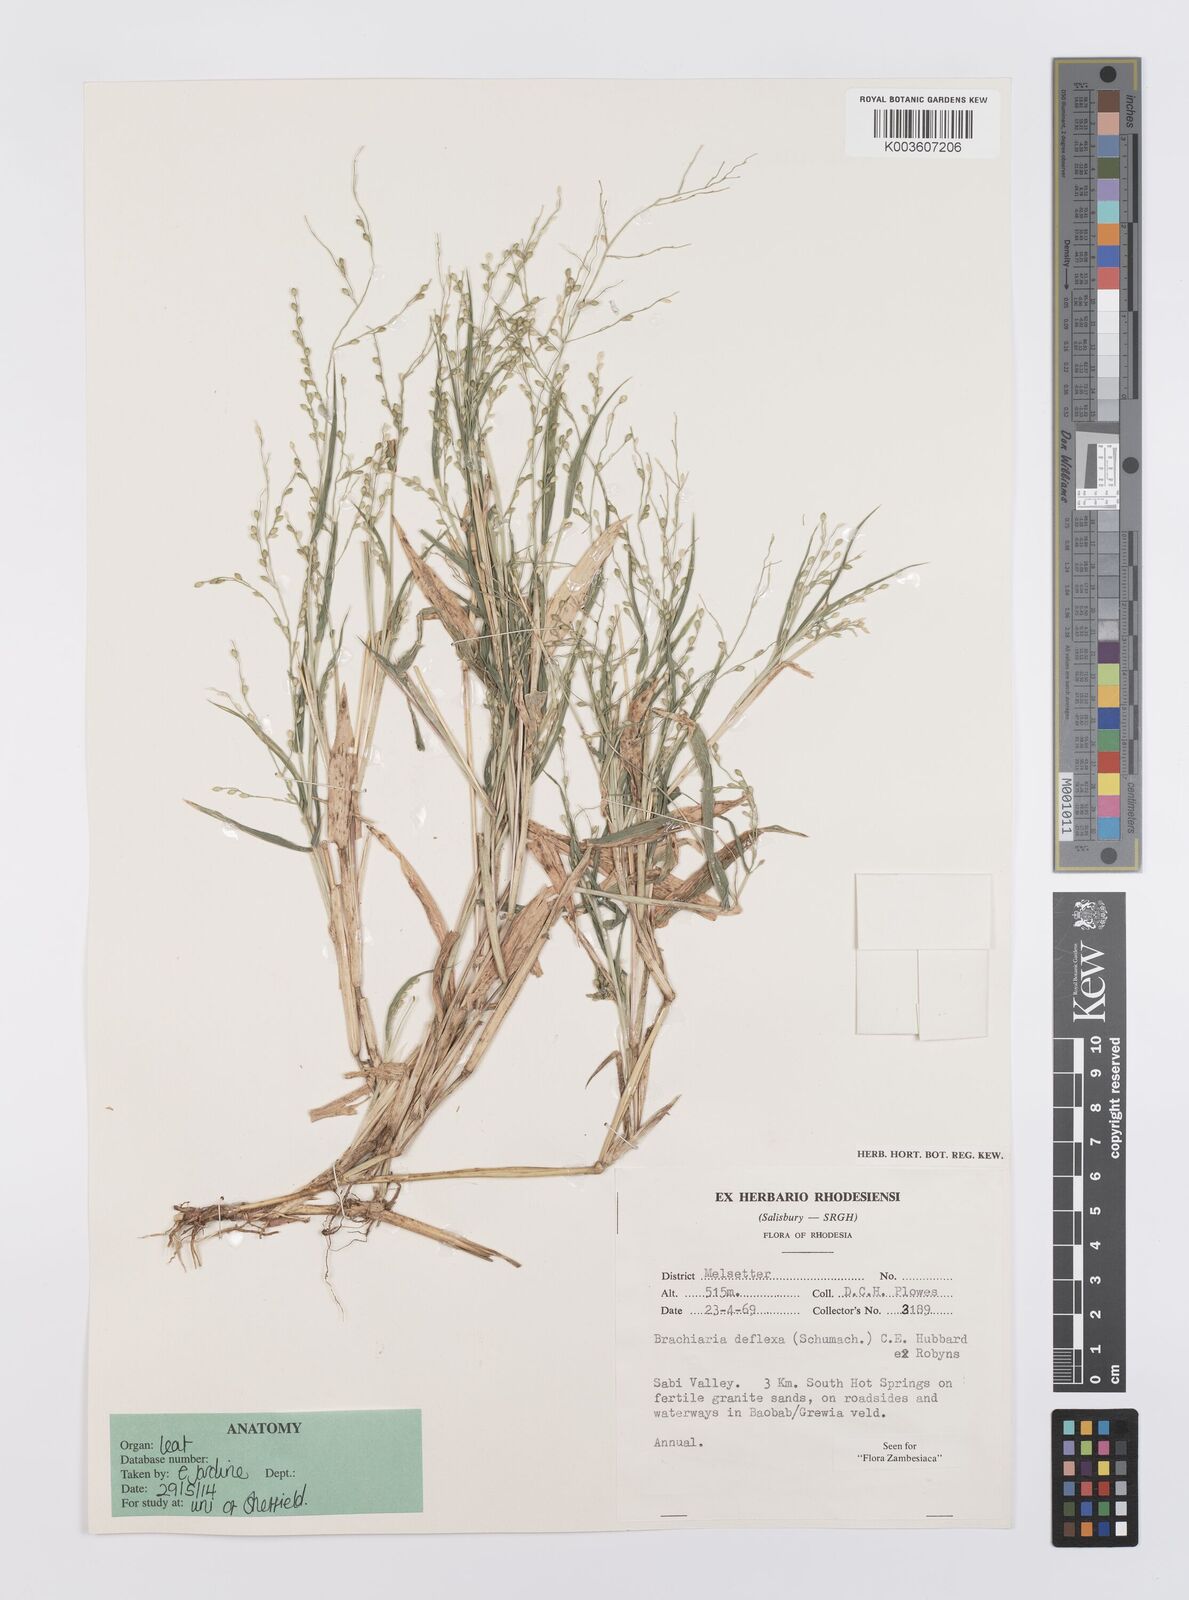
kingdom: Plantae
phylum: Tracheophyta
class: Liliopsida
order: Poales
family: Poaceae
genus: Urochloa
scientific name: Urochloa deflexa
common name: Guinea millet
